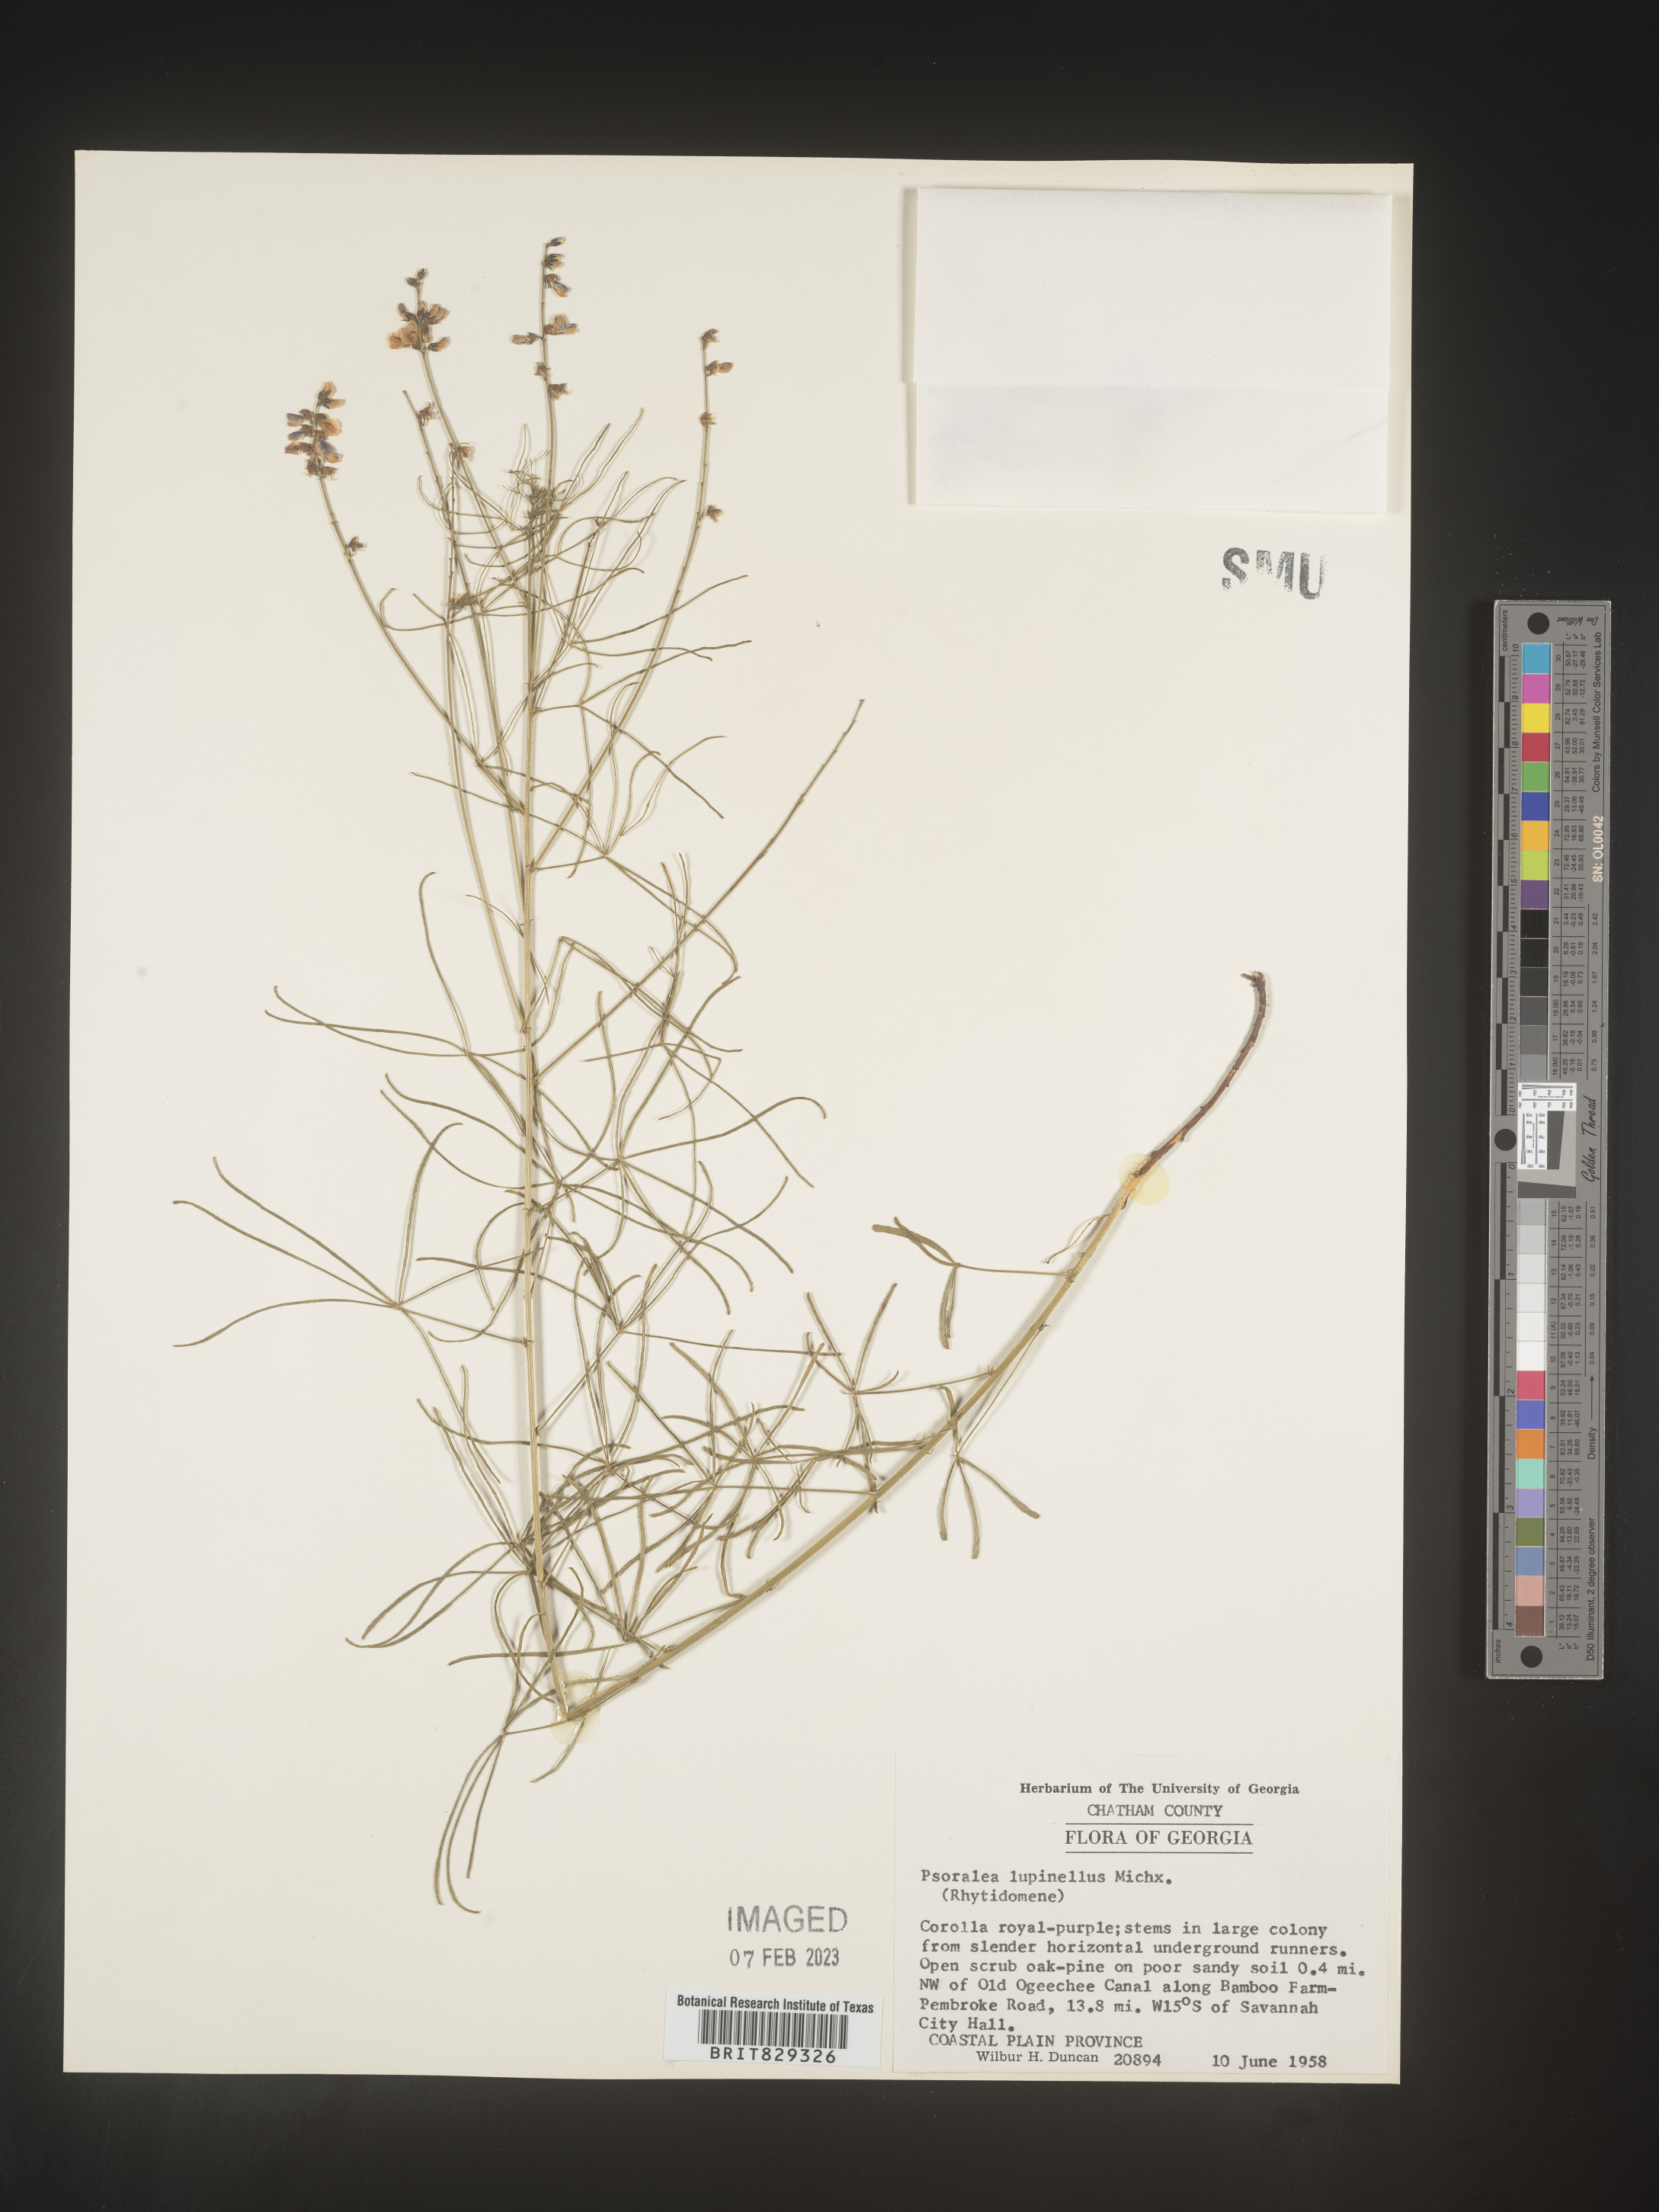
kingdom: Plantae
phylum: Tracheophyta
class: Magnoliopsida
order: Fabales
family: Fabaceae
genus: Psoralea
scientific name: Psoralea
